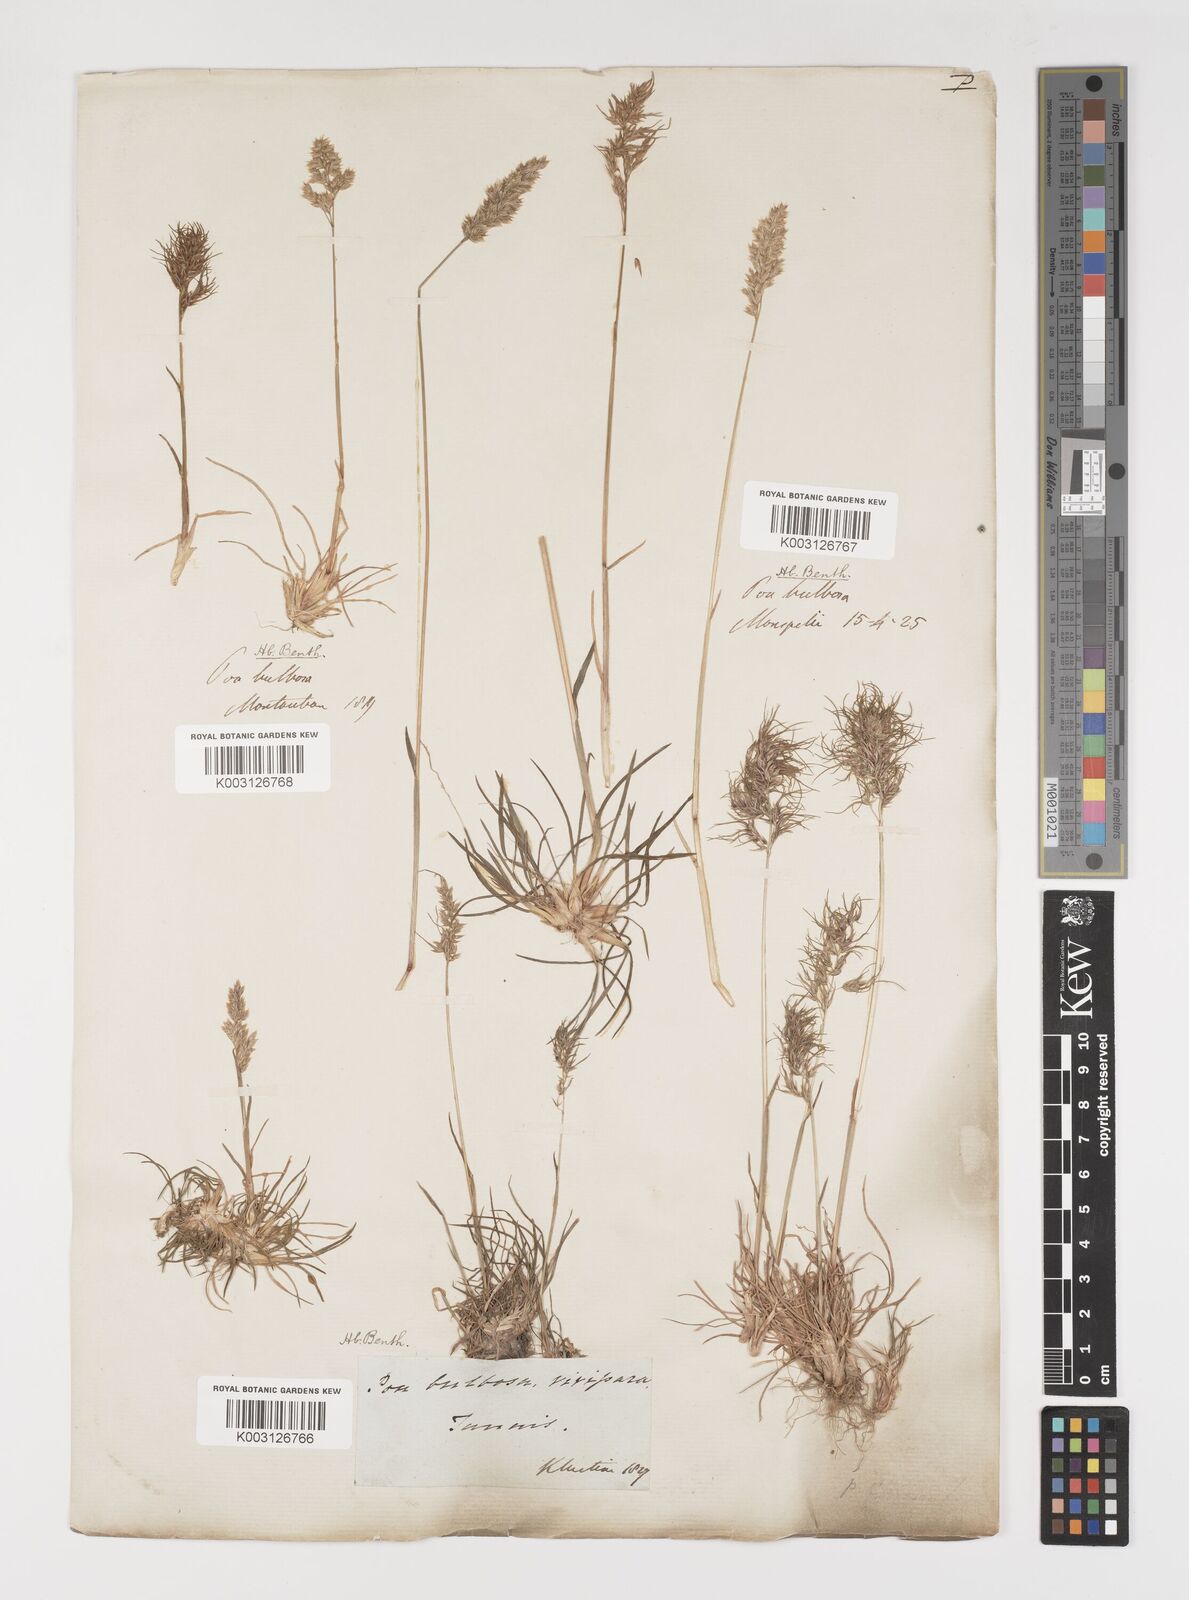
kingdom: Plantae
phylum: Tracheophyta
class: Liliopsida
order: Poales
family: Poaceae
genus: Poa
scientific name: Poa bulbosa
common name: Bulbous bluegrass
